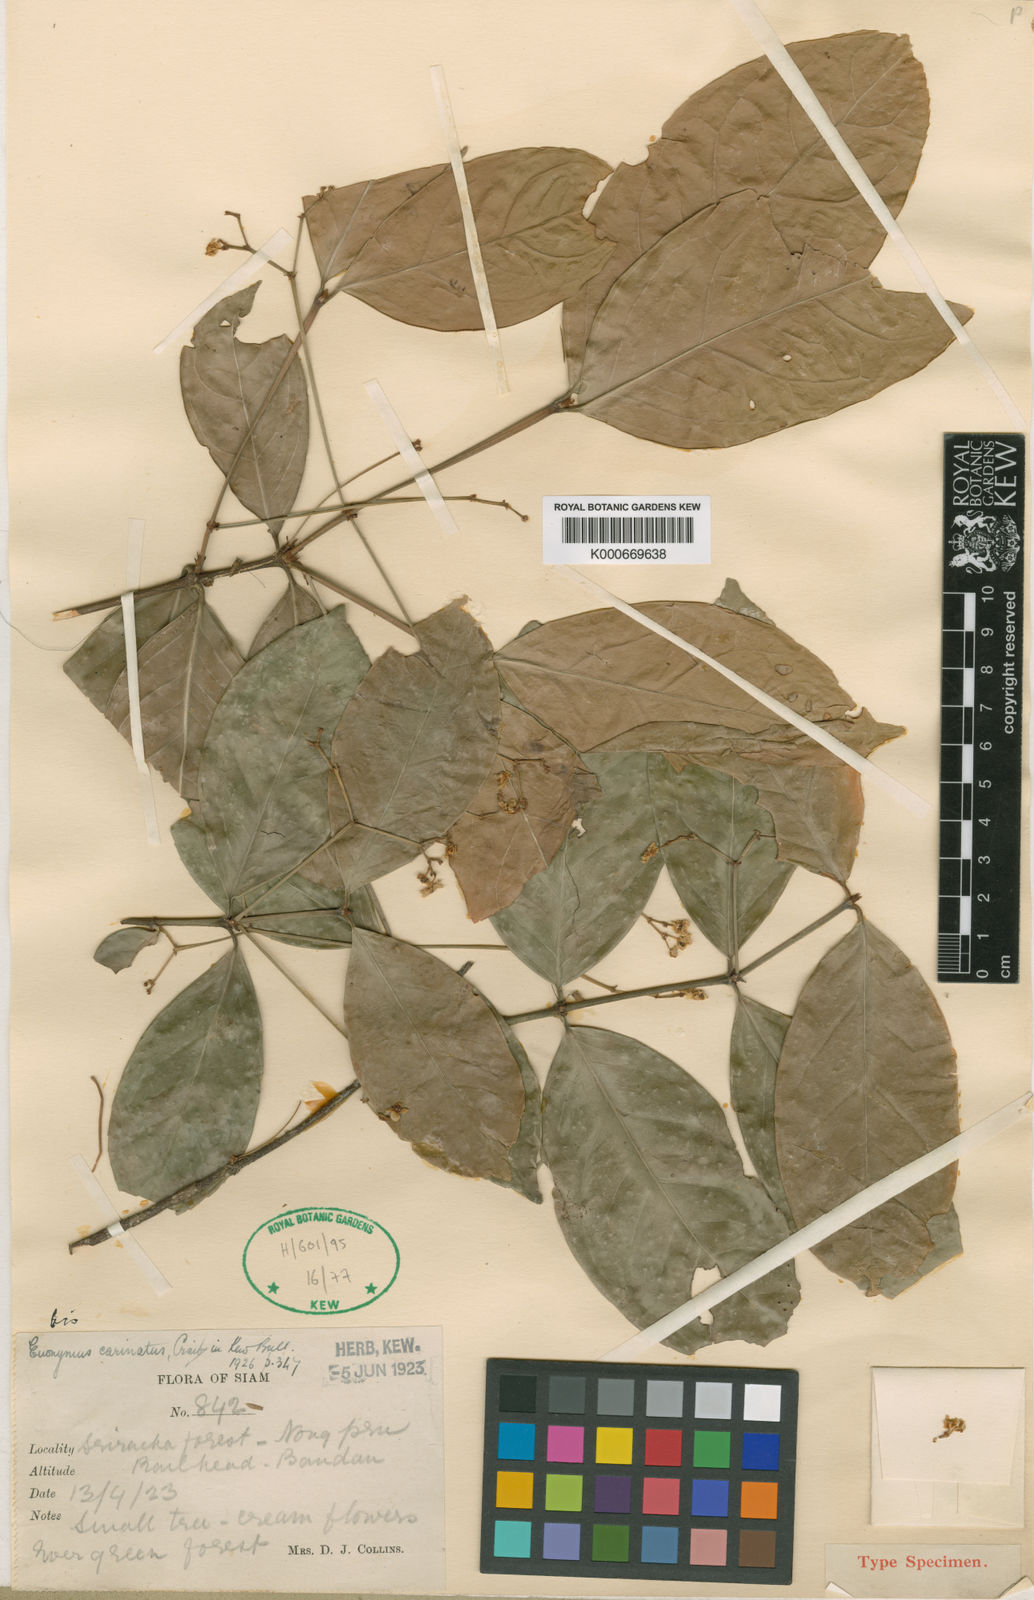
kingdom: Plantae
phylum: Tracheophyta
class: Magnoliopsida
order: Celastrales
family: Celastraceae
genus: Euonymus
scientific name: Euonymus glaber
